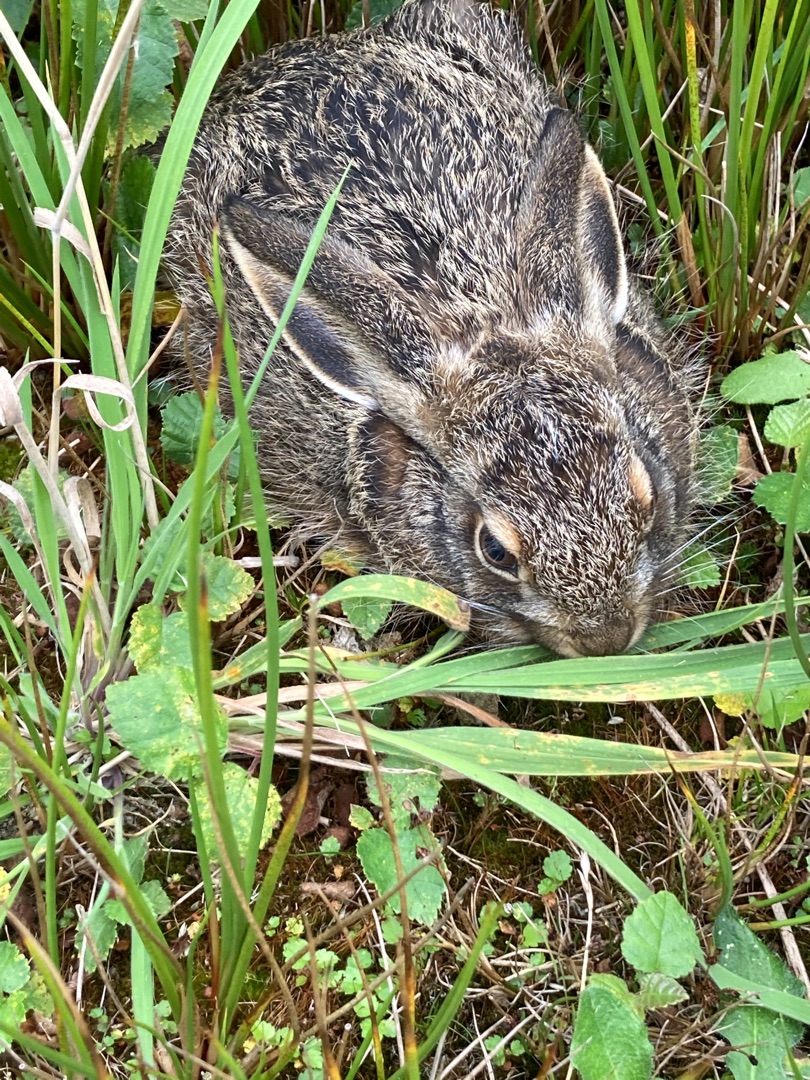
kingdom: Animalia
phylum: Chordata
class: Mammalia
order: Lagomorpha
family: Leporidae
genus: Lepus
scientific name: Lepus europaeus
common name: Hare
